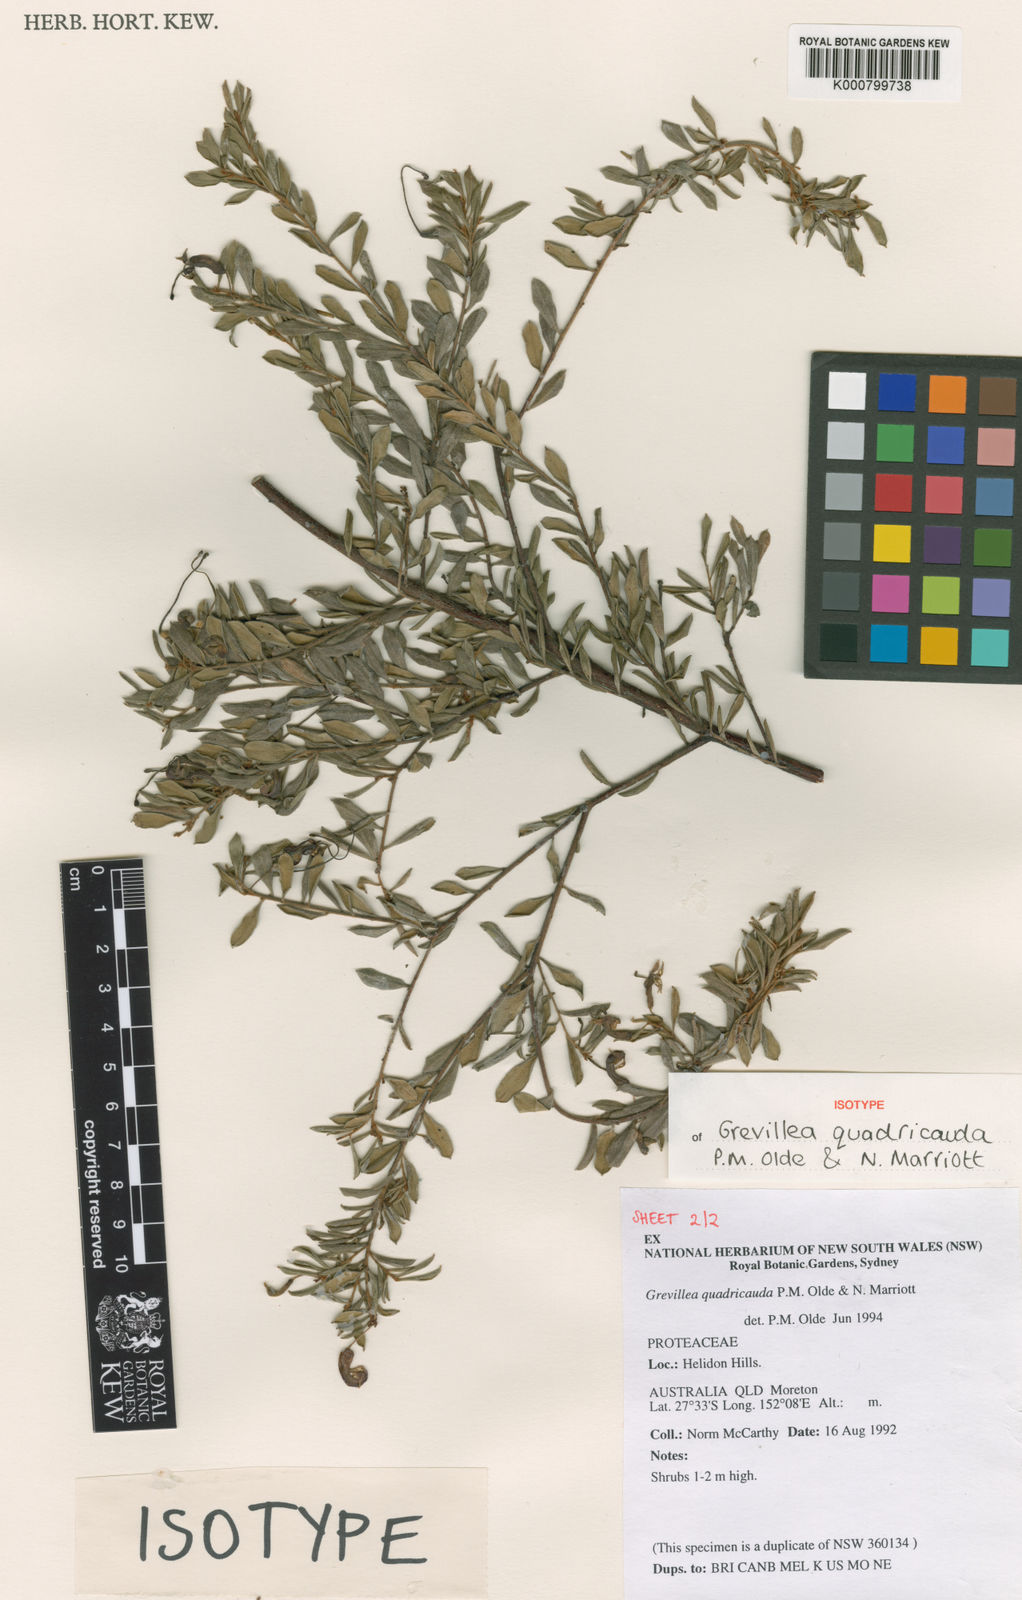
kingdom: Plantae
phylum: Tracheophyta
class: Magnoliopsida
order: Proteales
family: Proteaceae
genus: Grevillea
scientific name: Grevillea quadricauda
